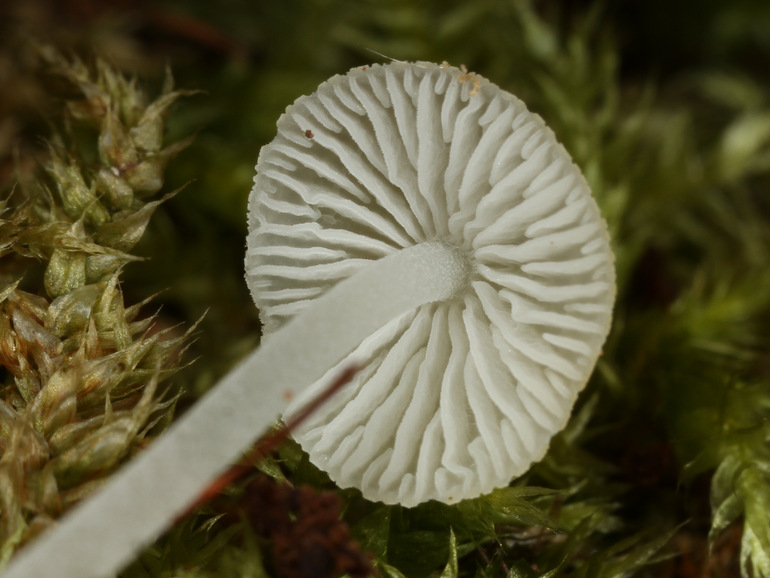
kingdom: Fungi
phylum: Basidiomycota
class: Agaricomycetes
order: Agaricales
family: Porotheleaceae
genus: Phloeomana
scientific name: Phloeomana minutula
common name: bleg huesvamp
